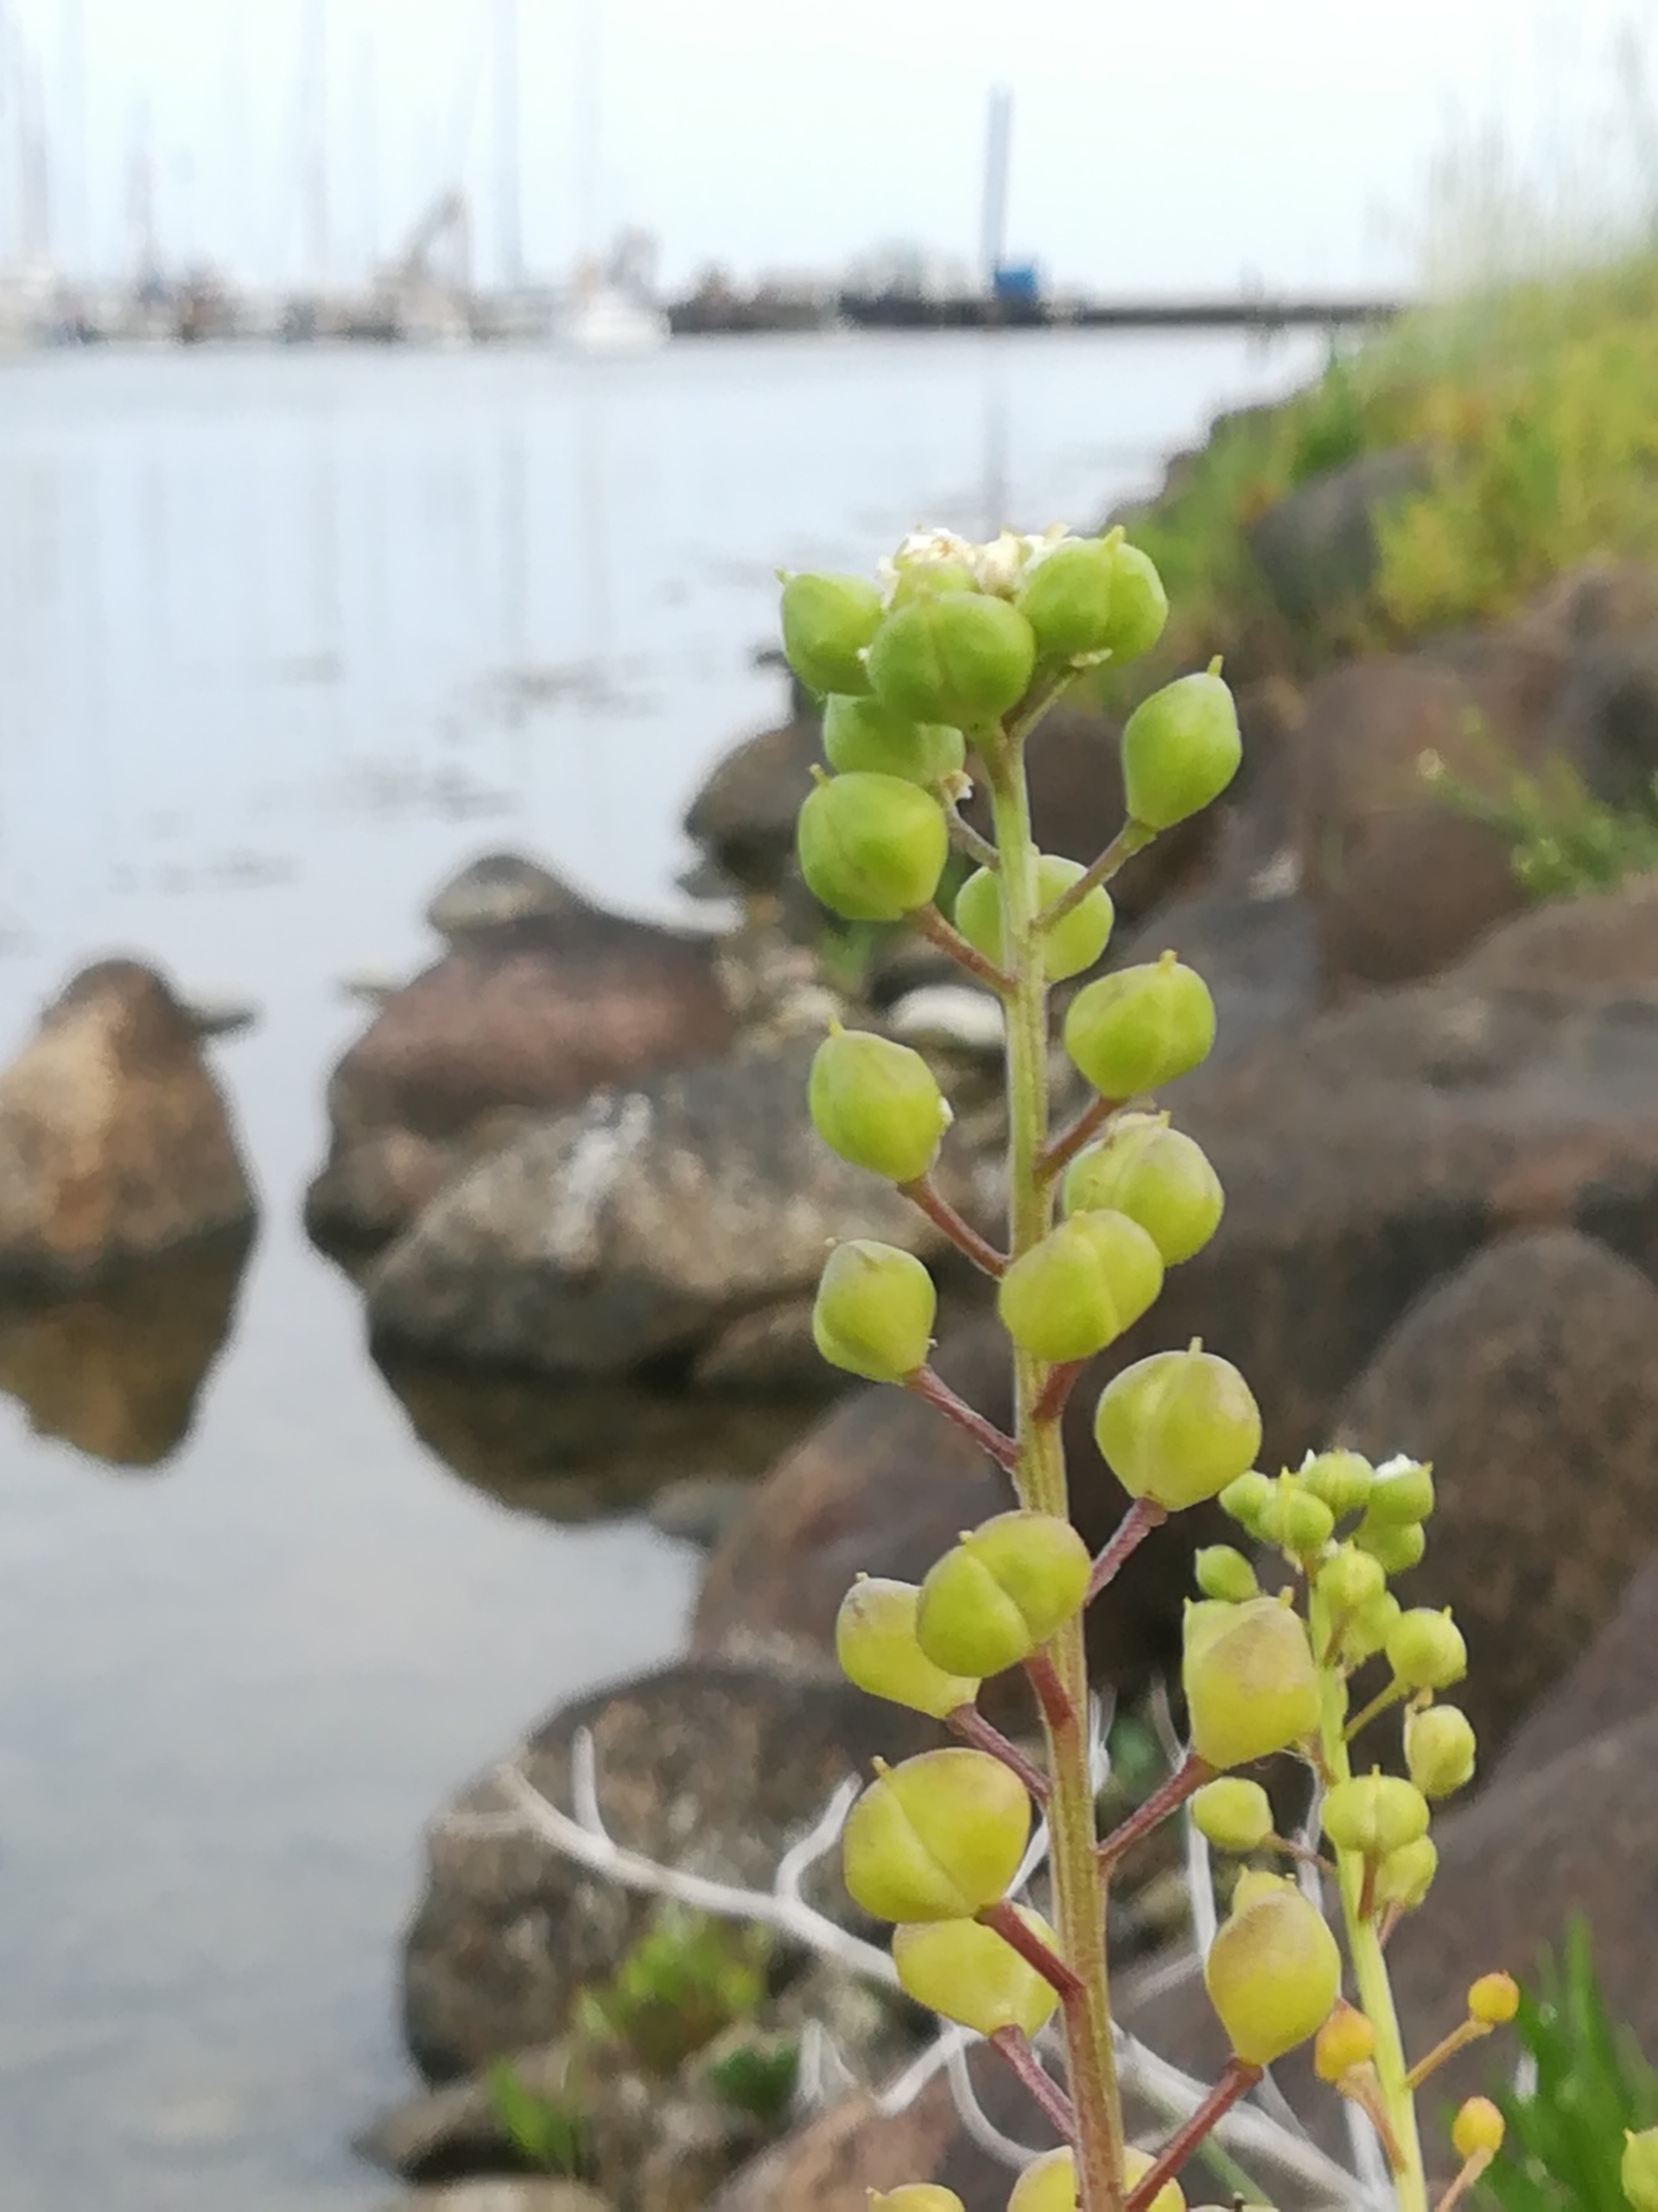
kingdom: Plantae
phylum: Tracheophyta
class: Magnoliopsida
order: Brassicales
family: Brassicaceae
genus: Cochlearia
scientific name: Cochlearia officinalis
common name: Læge-kokleare
